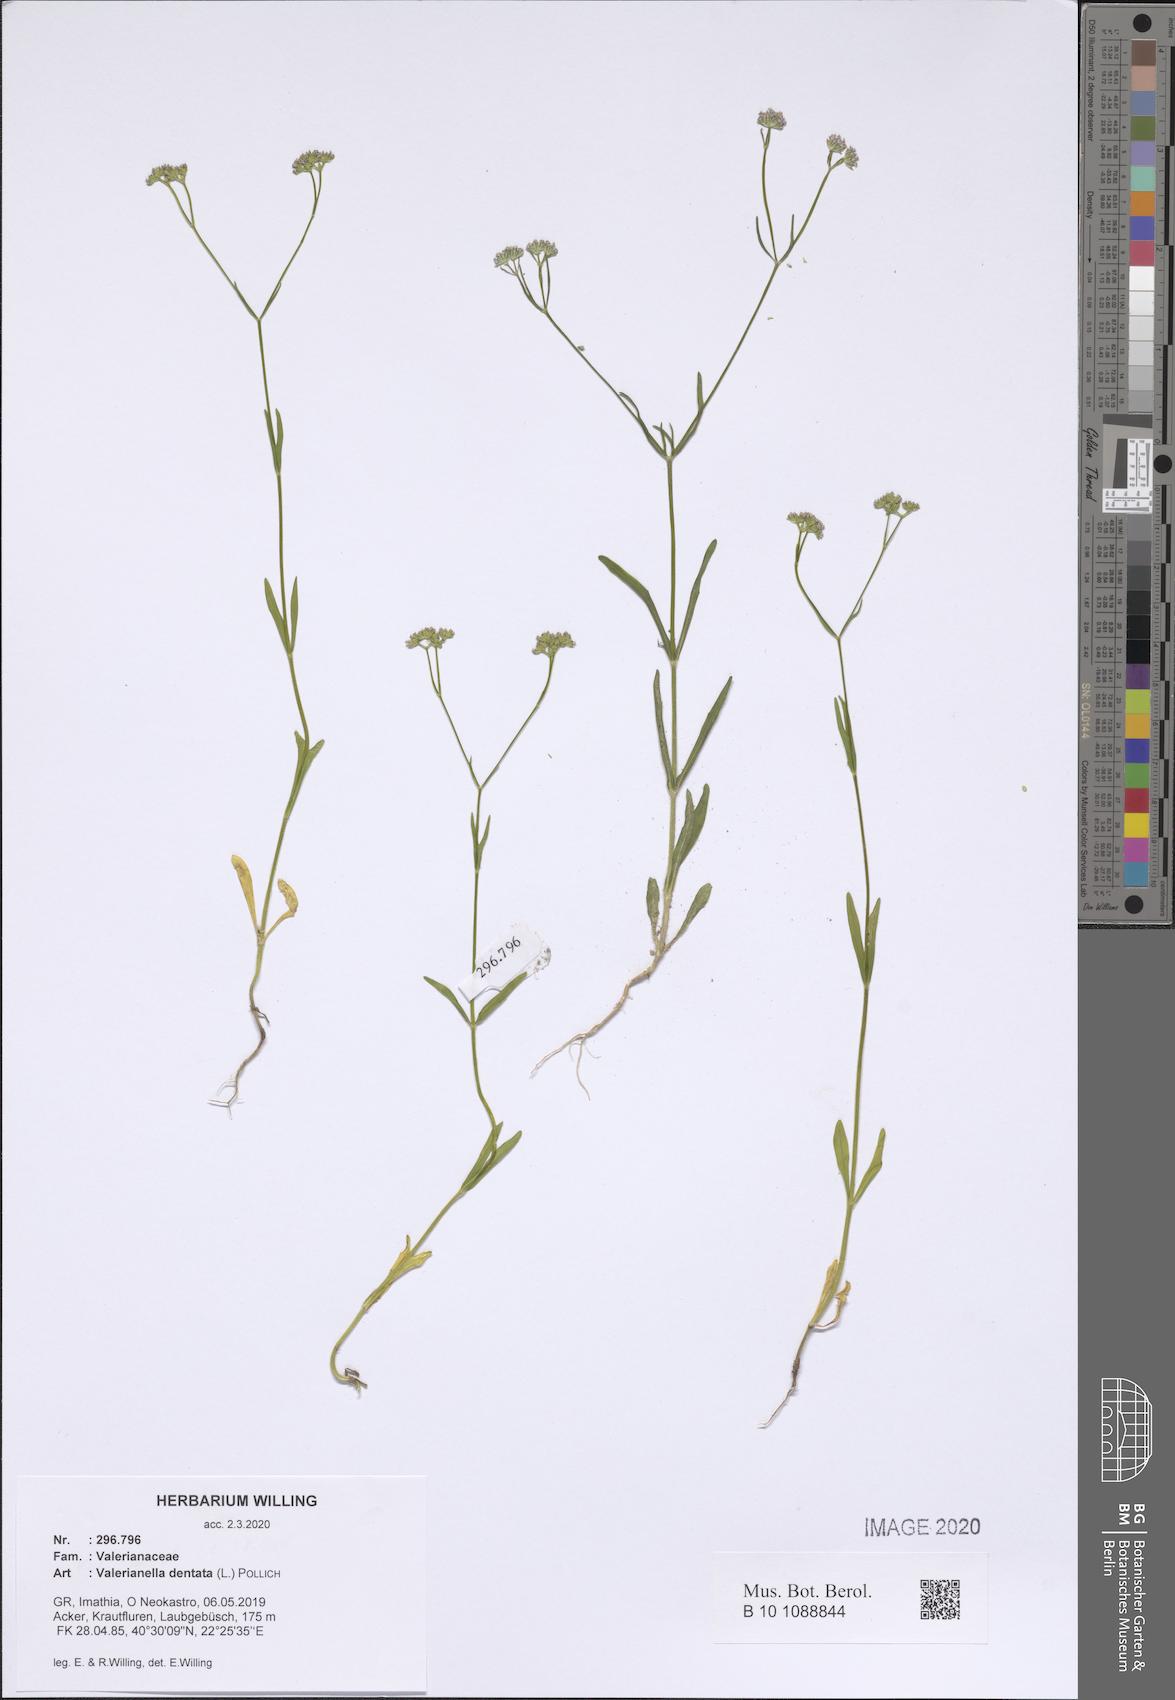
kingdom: Plantae
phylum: Tracheophyta
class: Magnoliopsida
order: Dipsacales
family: Caprifoliaceae
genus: Valerianella
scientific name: Valerianella dentata
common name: Narrow-fruited cornsalad
